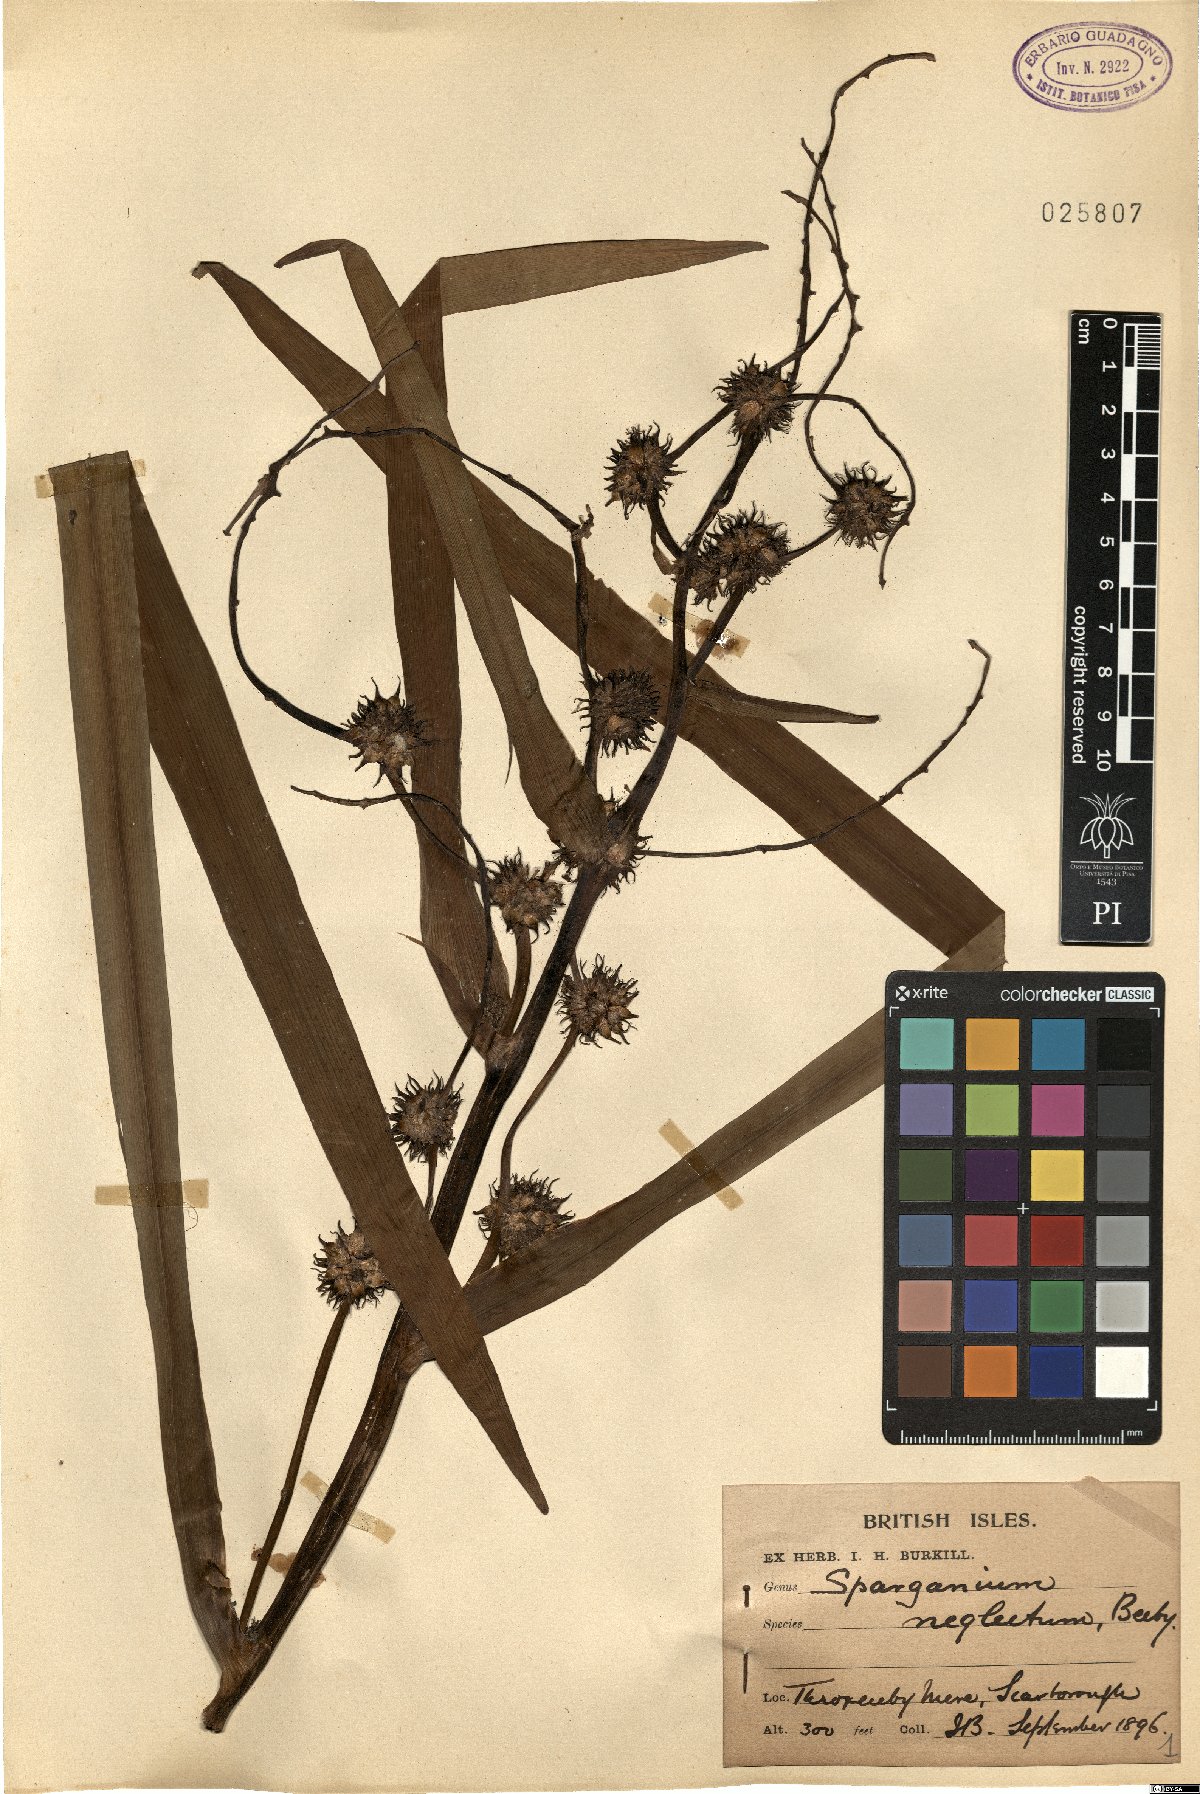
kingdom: Plantae
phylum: Tracheophyta
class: Liliopsida
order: Poales
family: Typhaceae
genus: Sparganium
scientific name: Sparganium erectum
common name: Branched bur-reed
